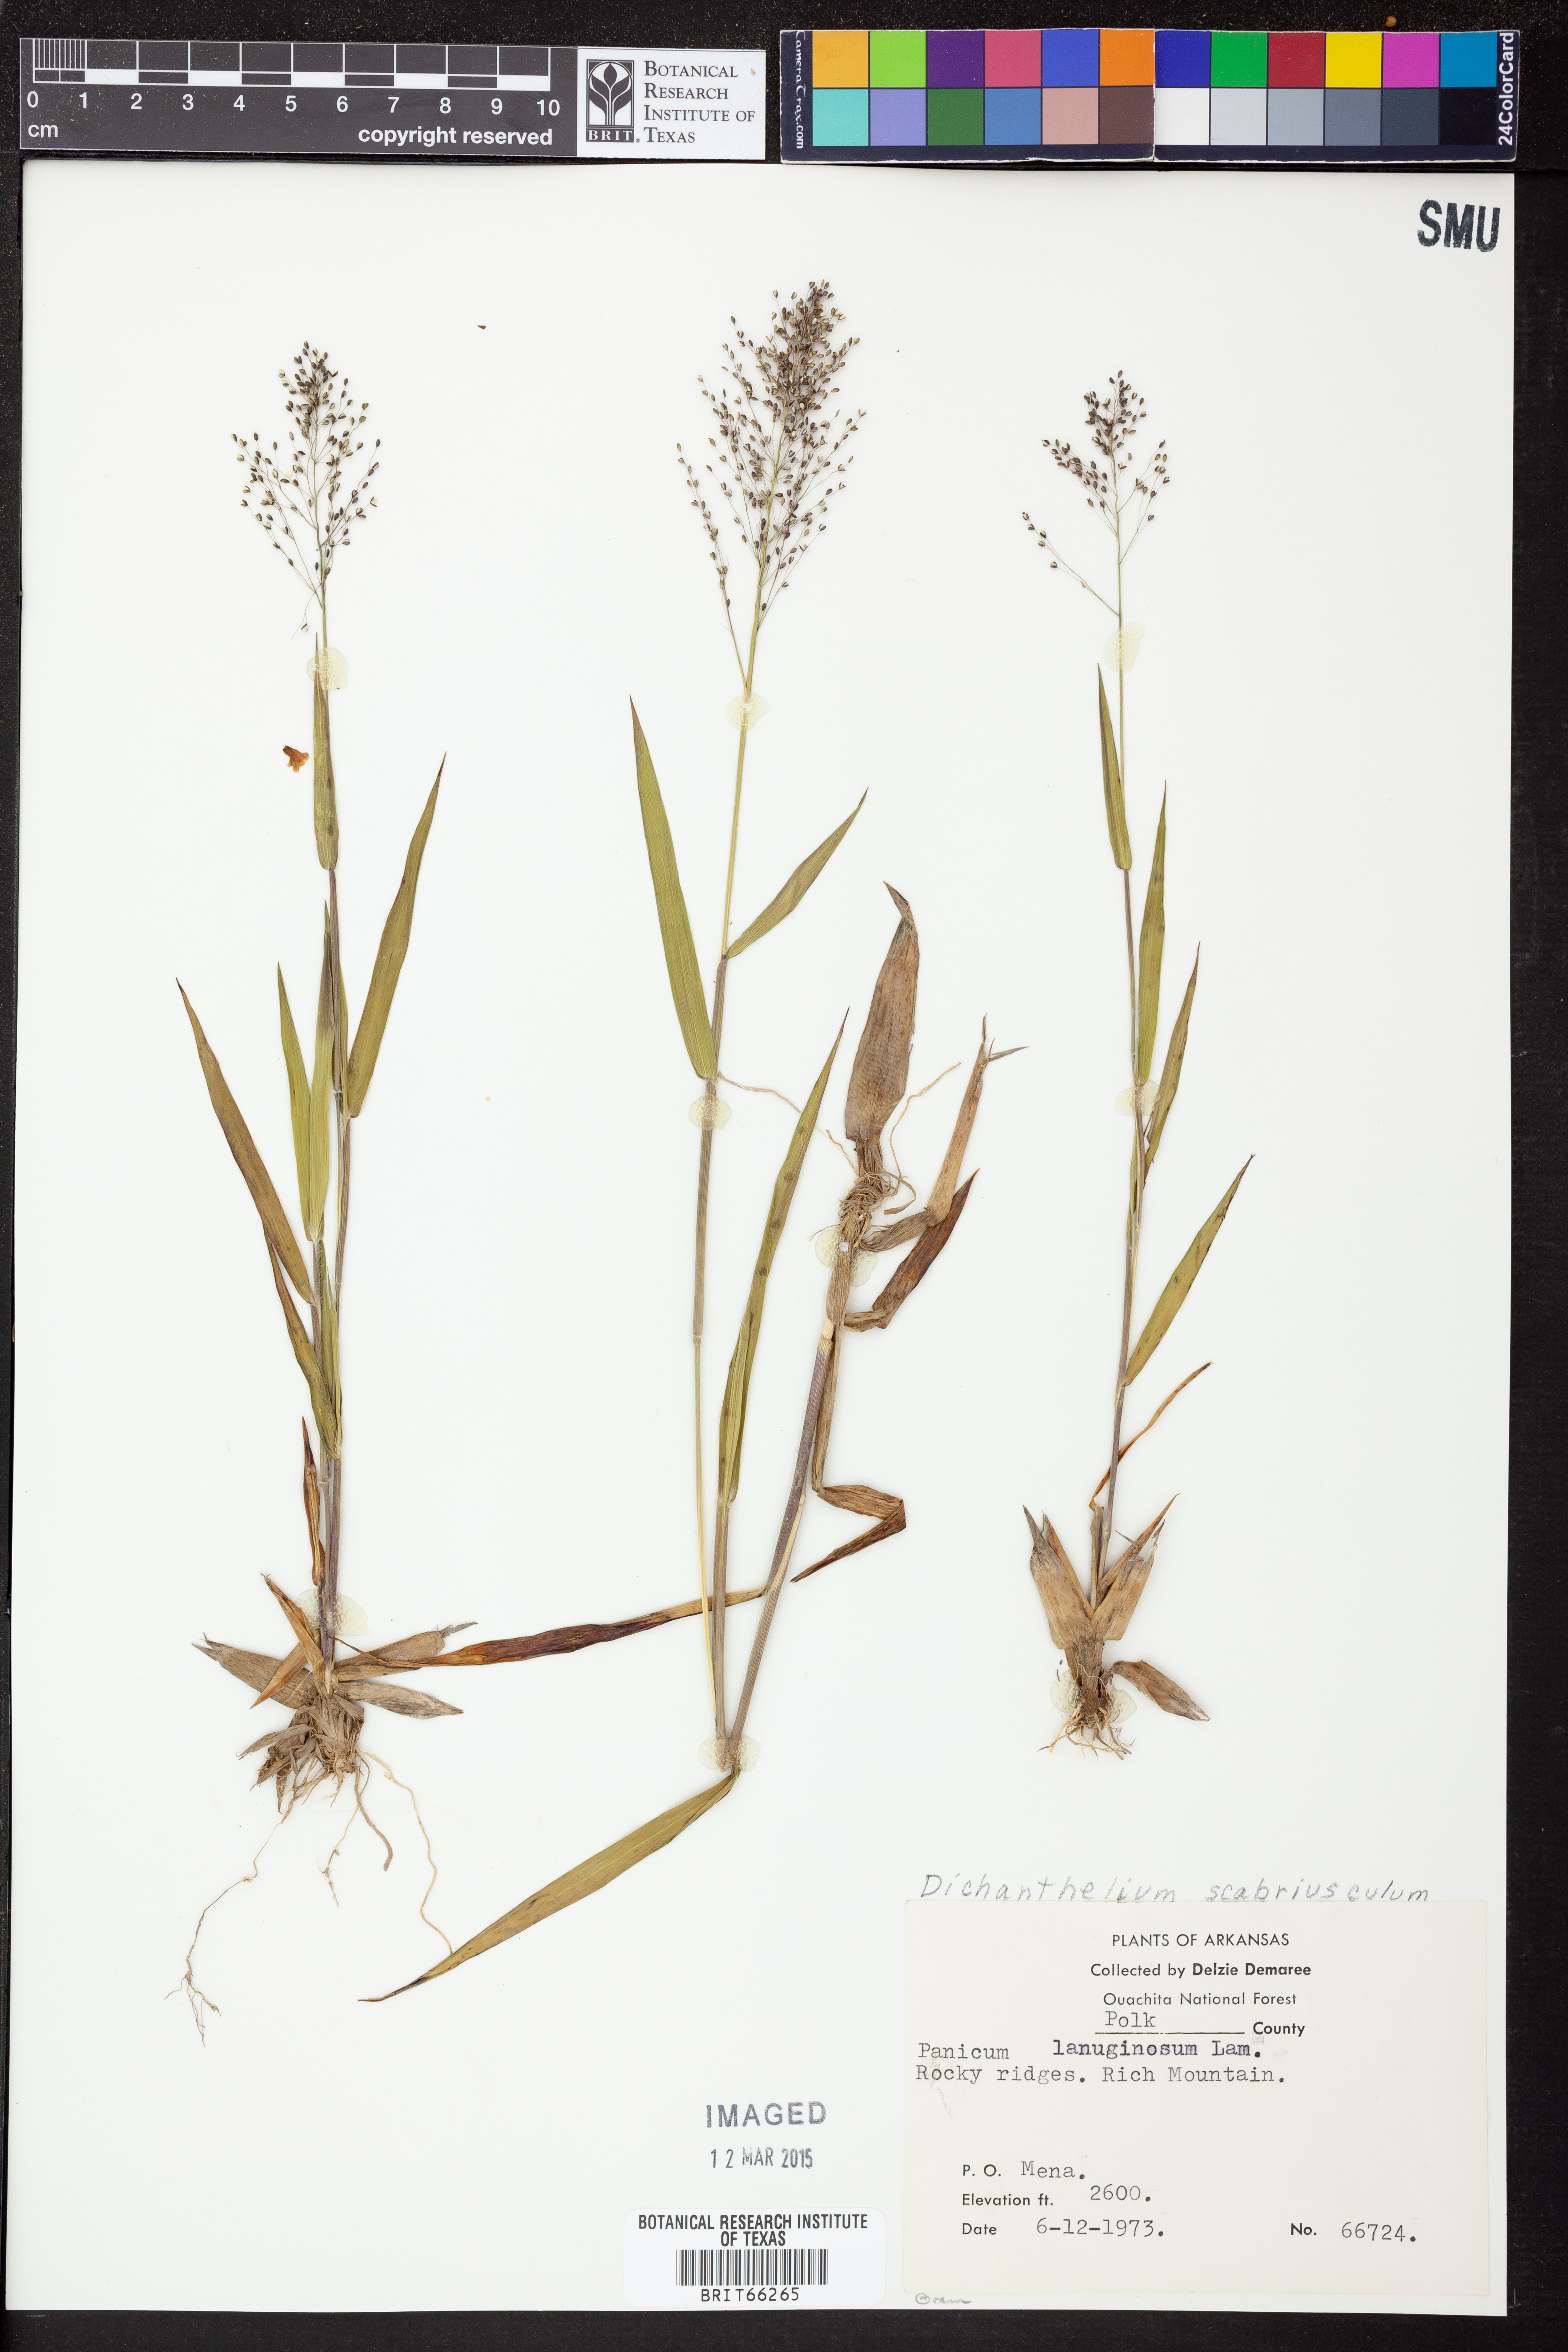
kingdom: Plantae
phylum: Tracheophyta
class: Liliopsida
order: Poales
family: Poaceae
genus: Dichanthelium
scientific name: Dichanthelium lanuginosum
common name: Woolly panicgrass
